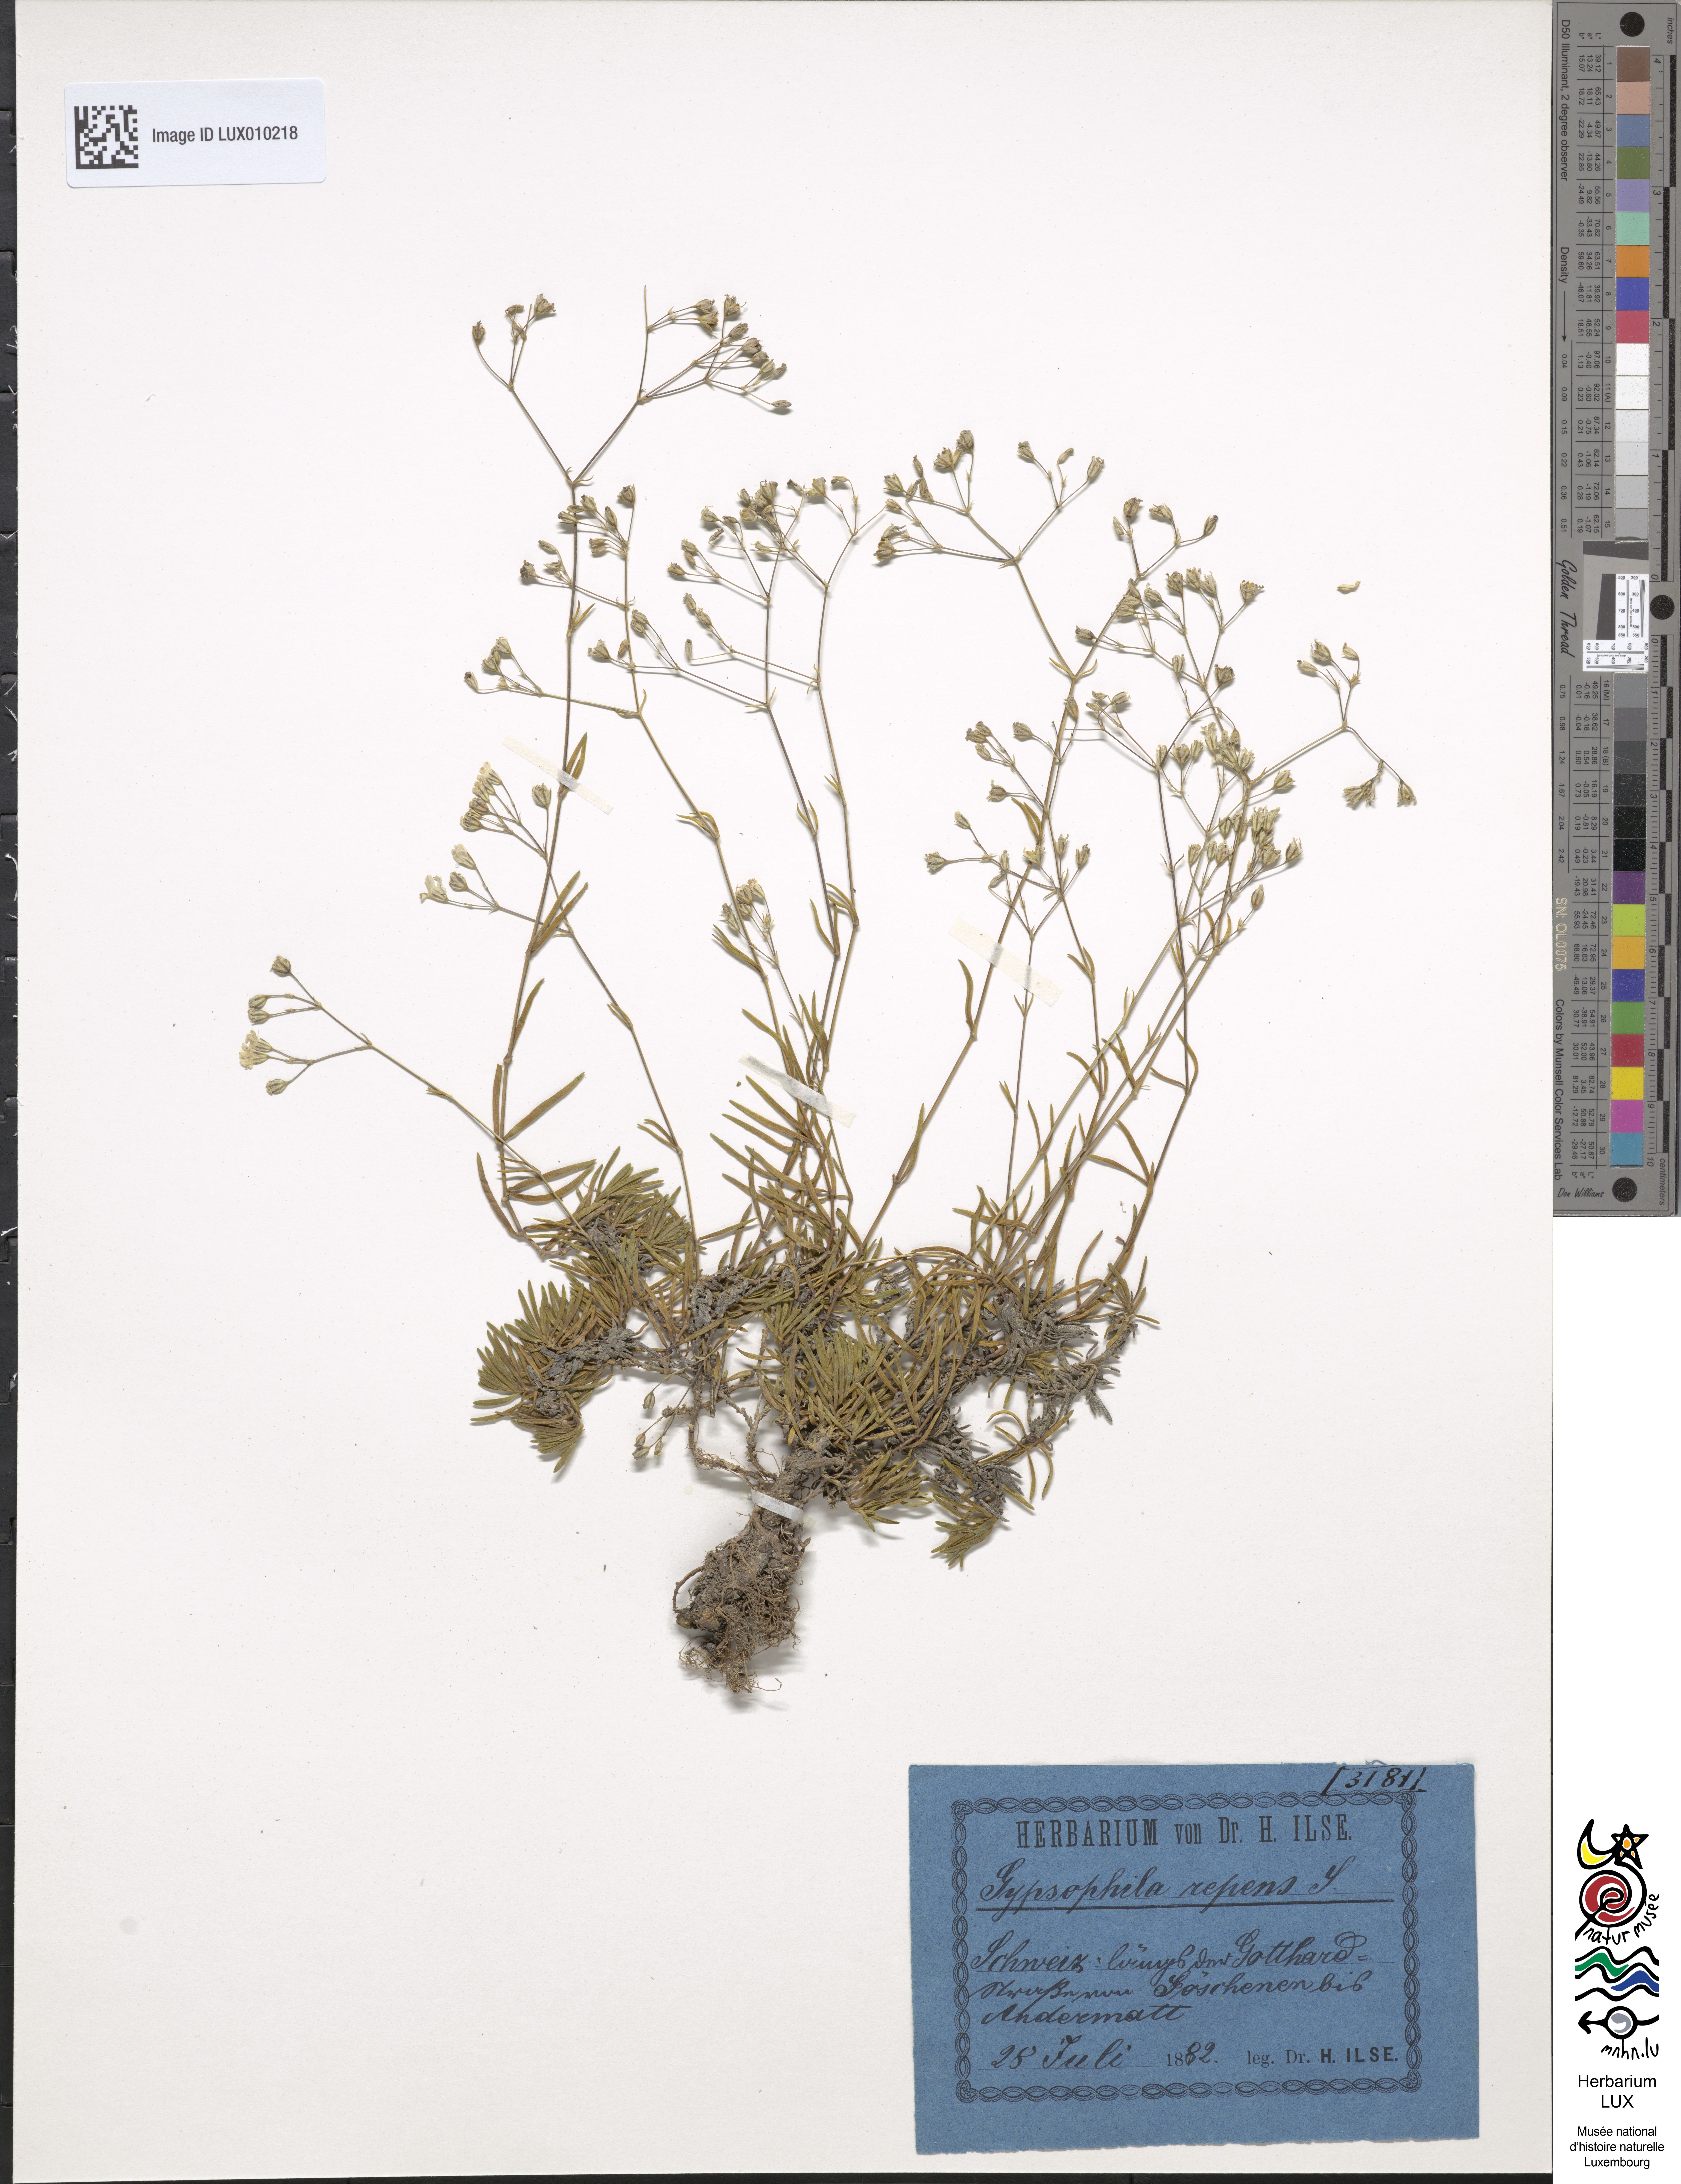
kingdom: Plantae
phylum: Tracheophyta
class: Magnoliopsida
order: Caryophyllales
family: Caryophyllaceae
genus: Gypsophila
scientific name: Gypsophila repens
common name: Creeping baby's-breath
